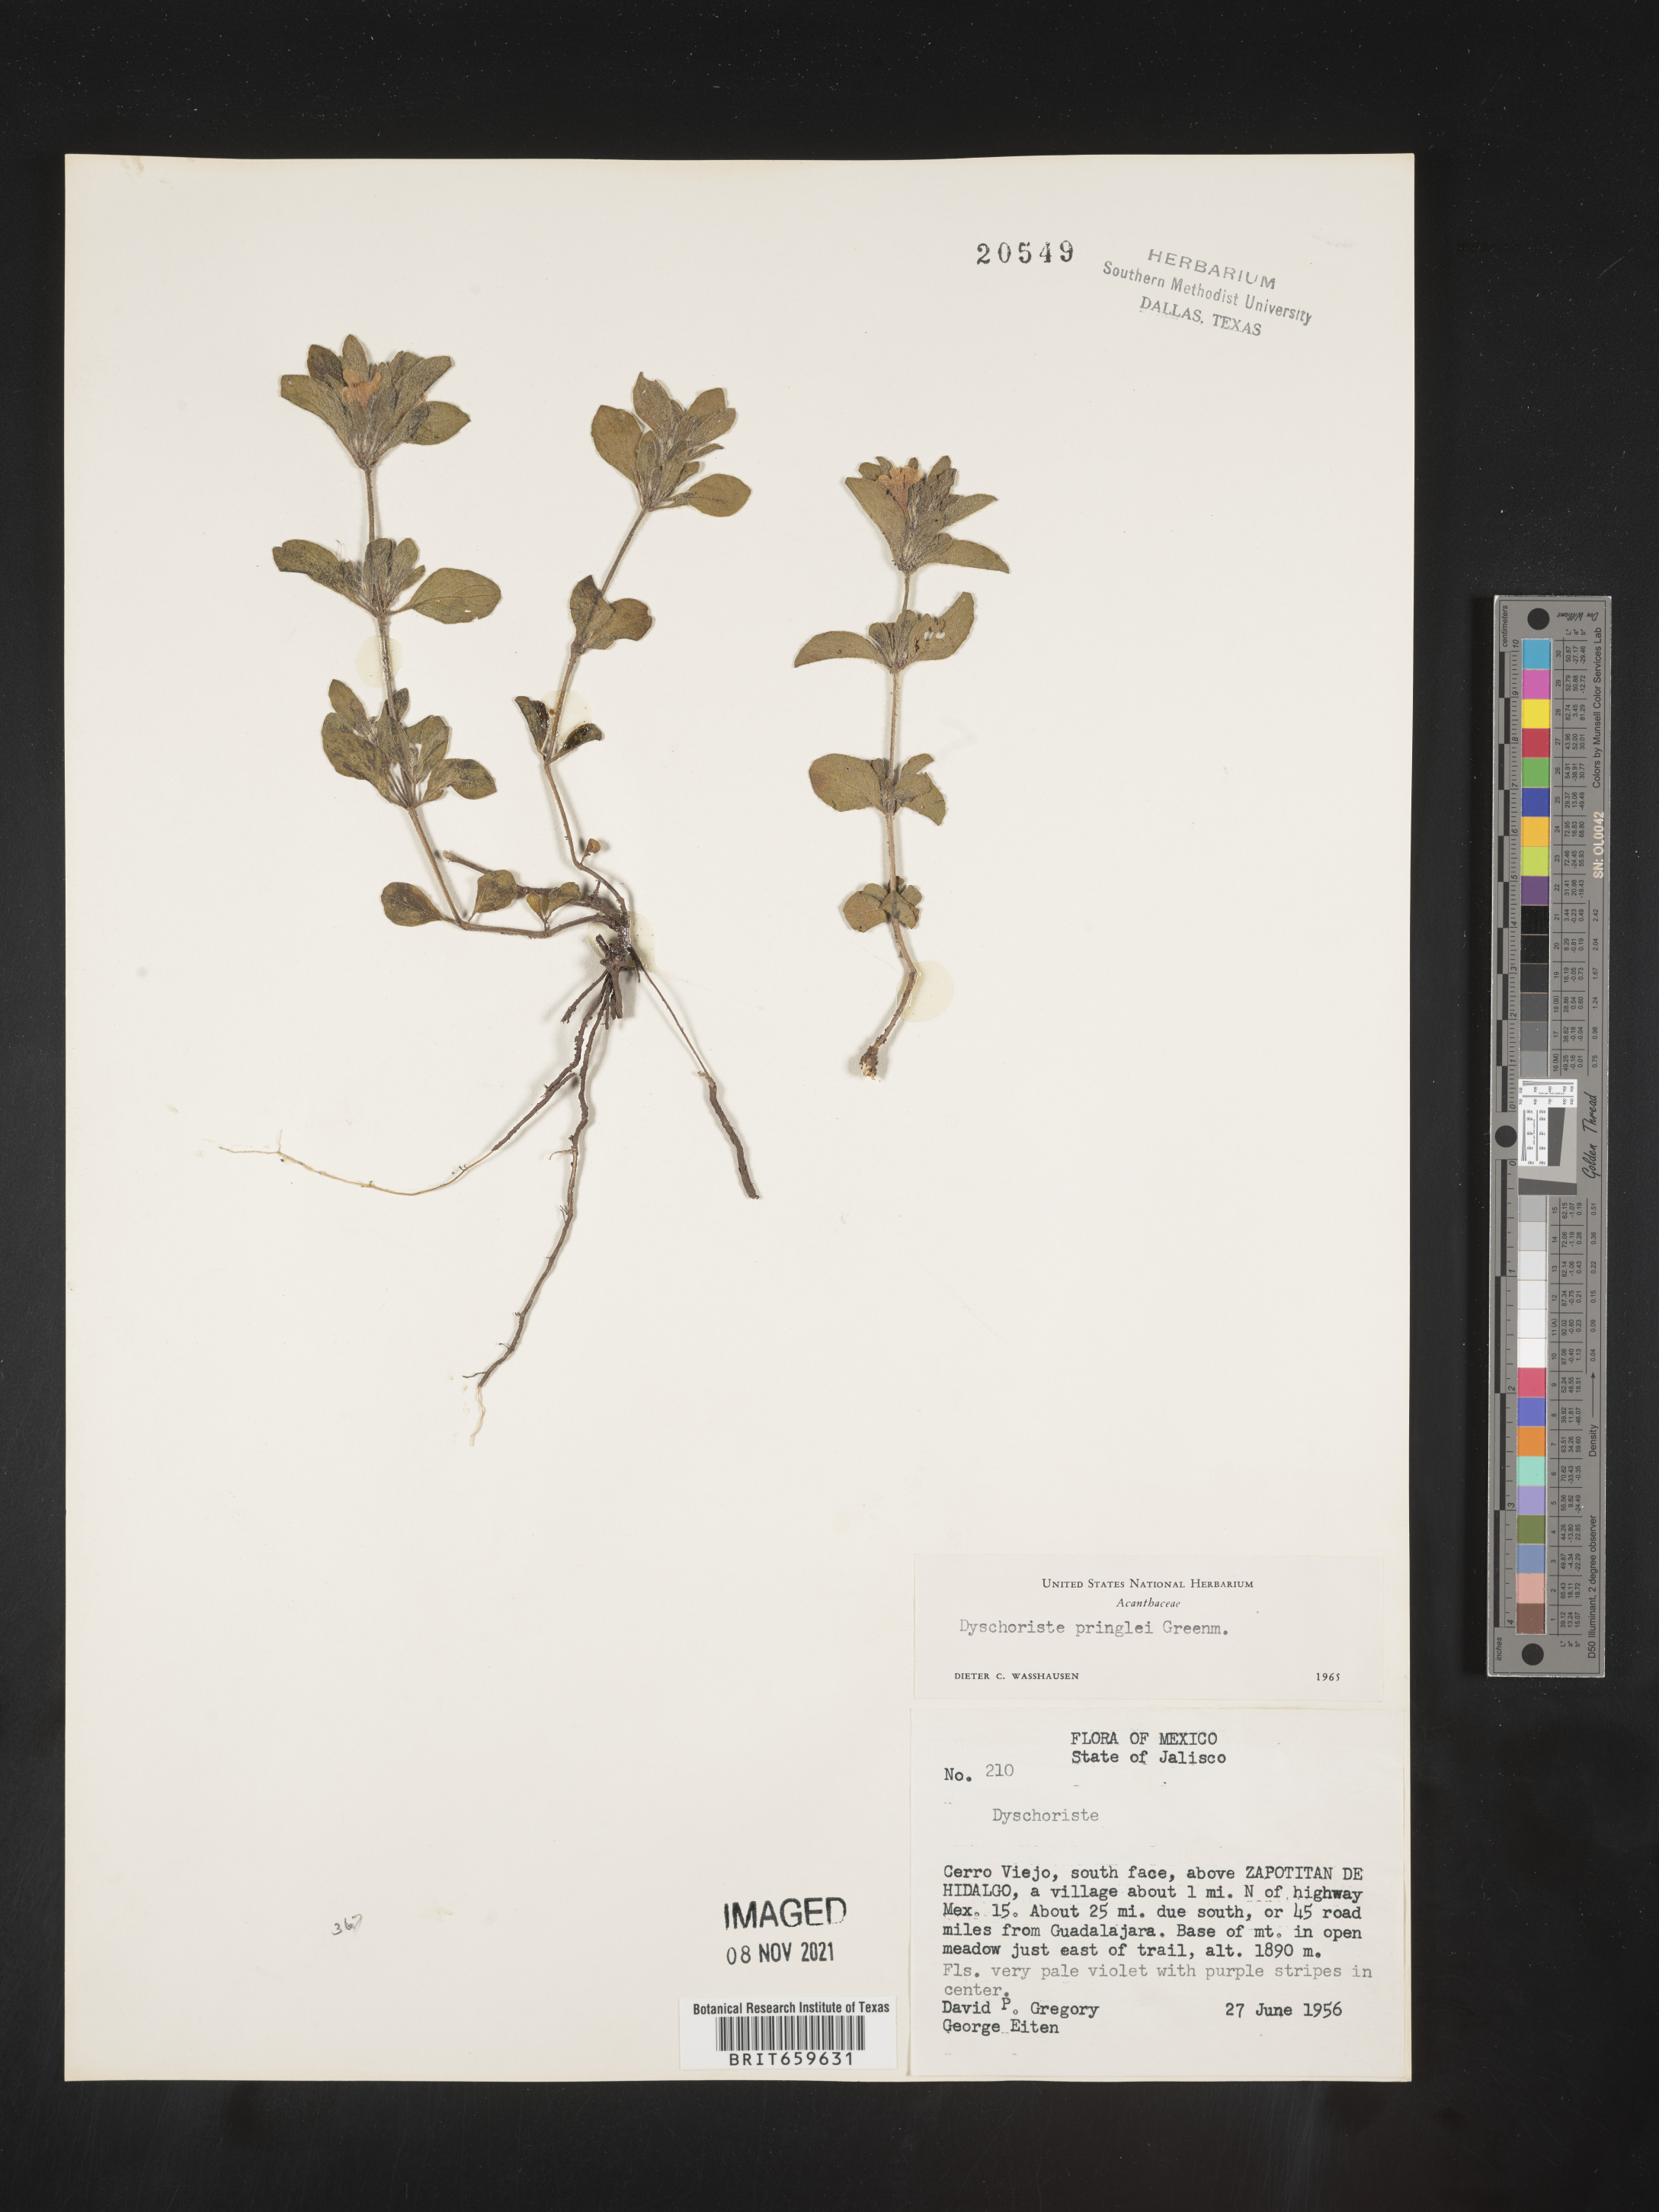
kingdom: Plantae
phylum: Tracheophyta
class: Magnoliopsida
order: Lamiales
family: Acanthaceae
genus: Dyschoriste
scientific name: Dyschoriste
